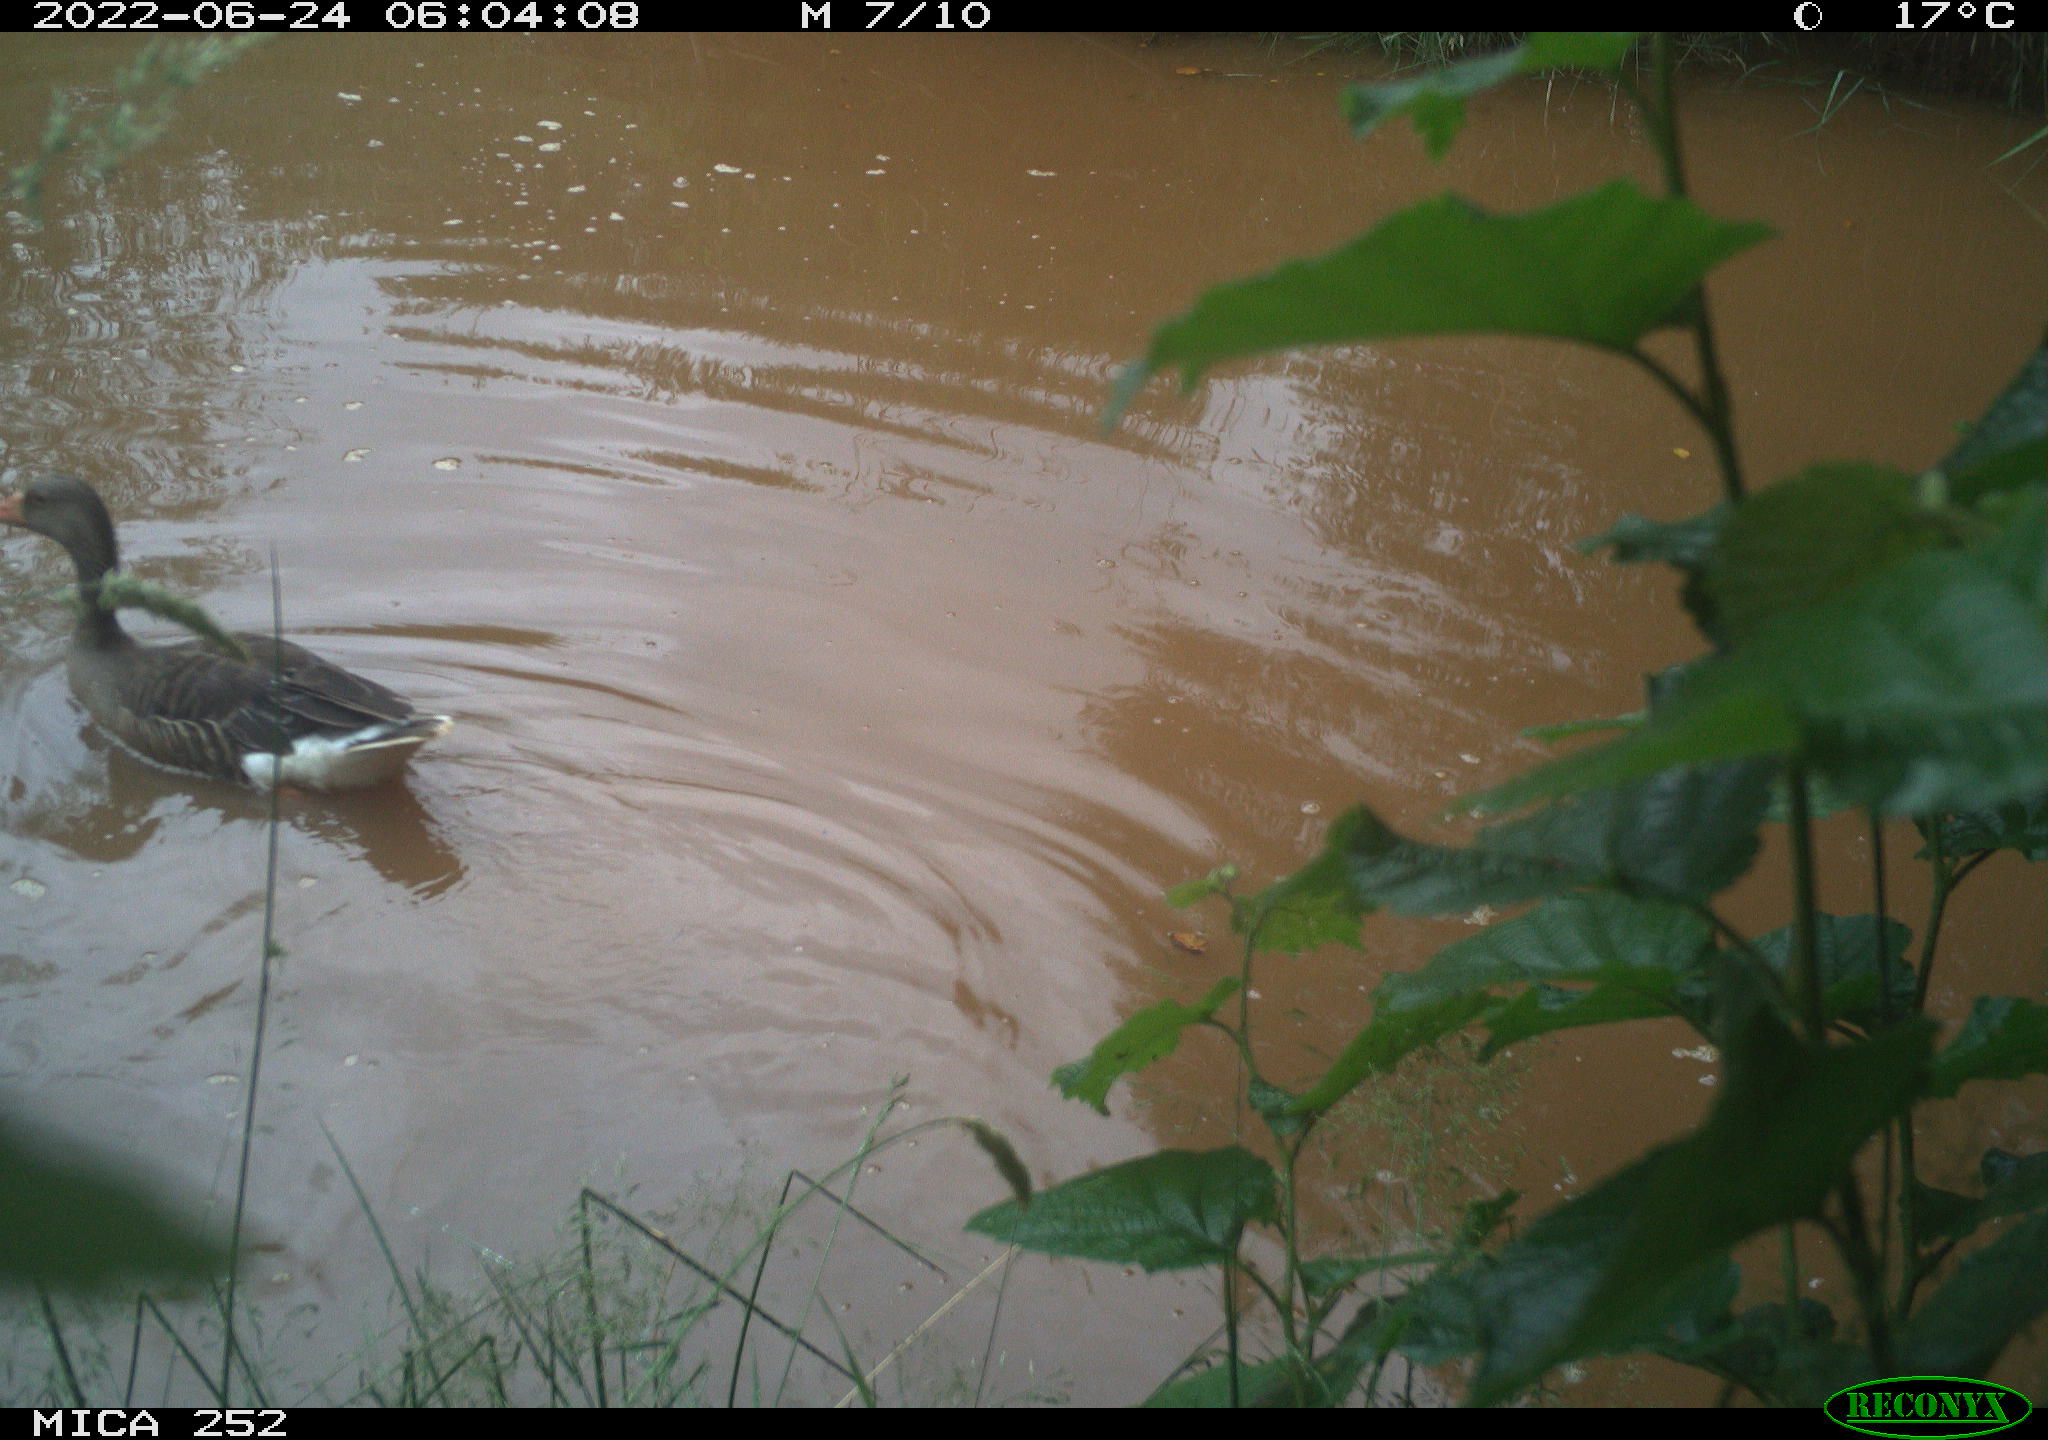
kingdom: Animalia
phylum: Chordata
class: Aves
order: Anseriformes
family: Anatidae
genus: Anser
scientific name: Anser anser
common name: Greylag goose
